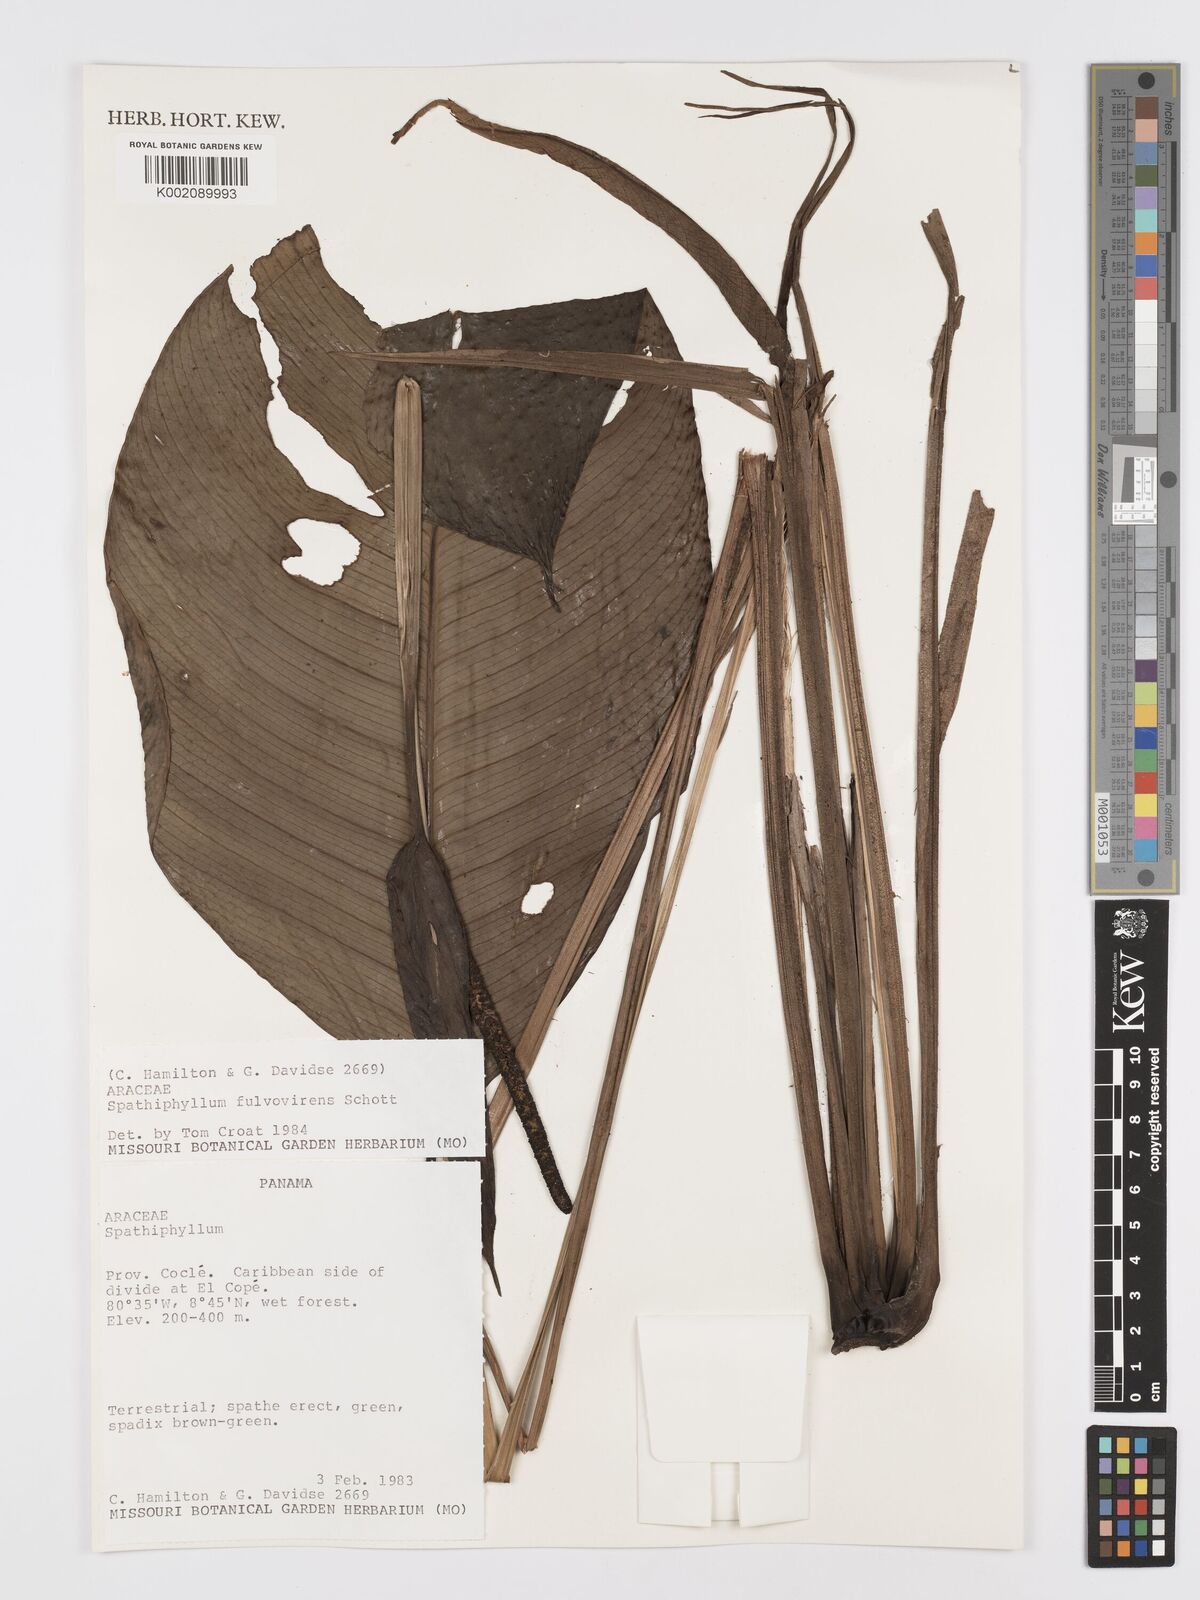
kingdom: Plantae
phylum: Tracheophyta
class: Liliopsida
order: Alismatales
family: Araceae
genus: Spathiphyllum
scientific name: Spathiphyllum fulvovirens
